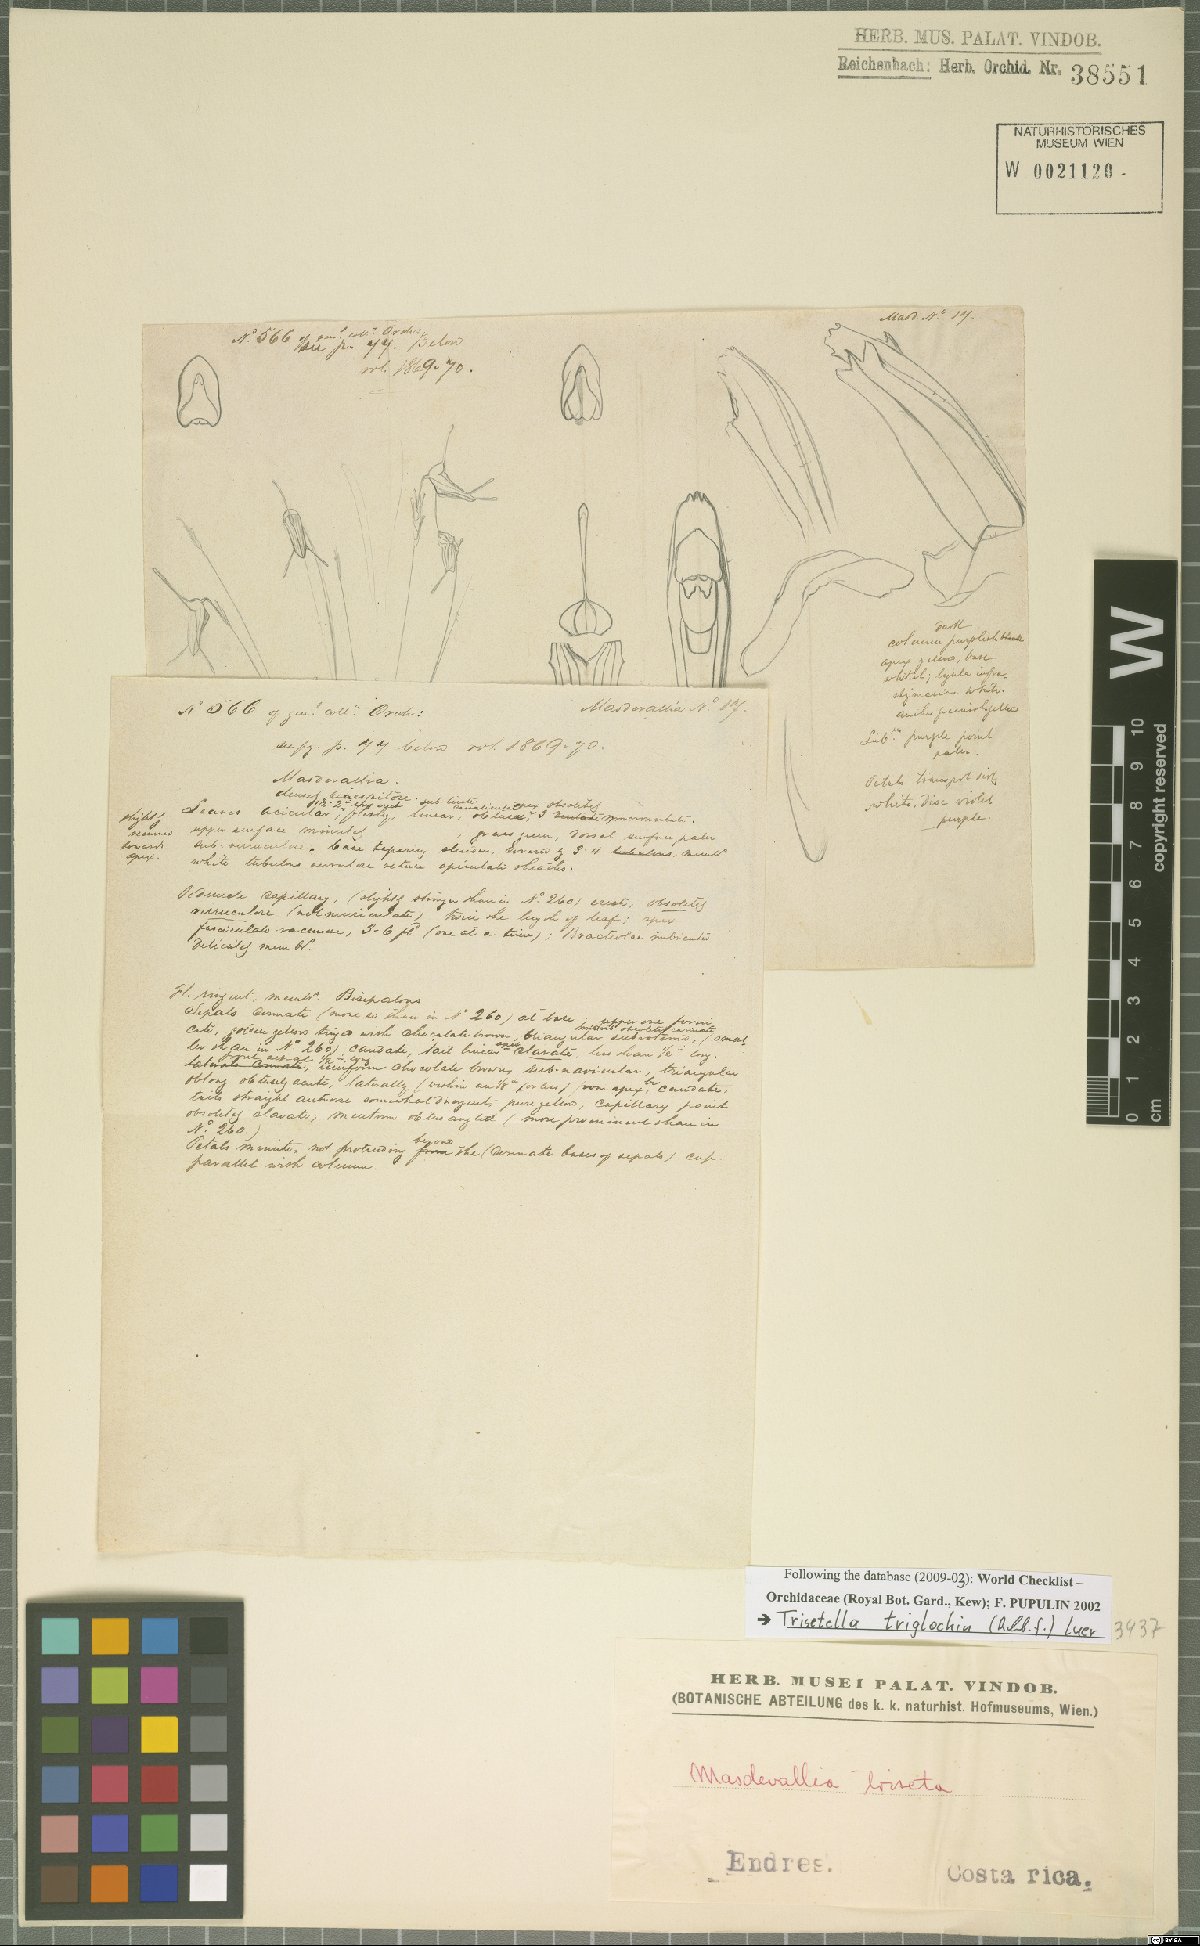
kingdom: Plantae
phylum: Tracheophyta
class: Liliopsida
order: Asparagales
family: Orchidaceae
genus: Trisetella
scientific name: Trisetella triglochin
